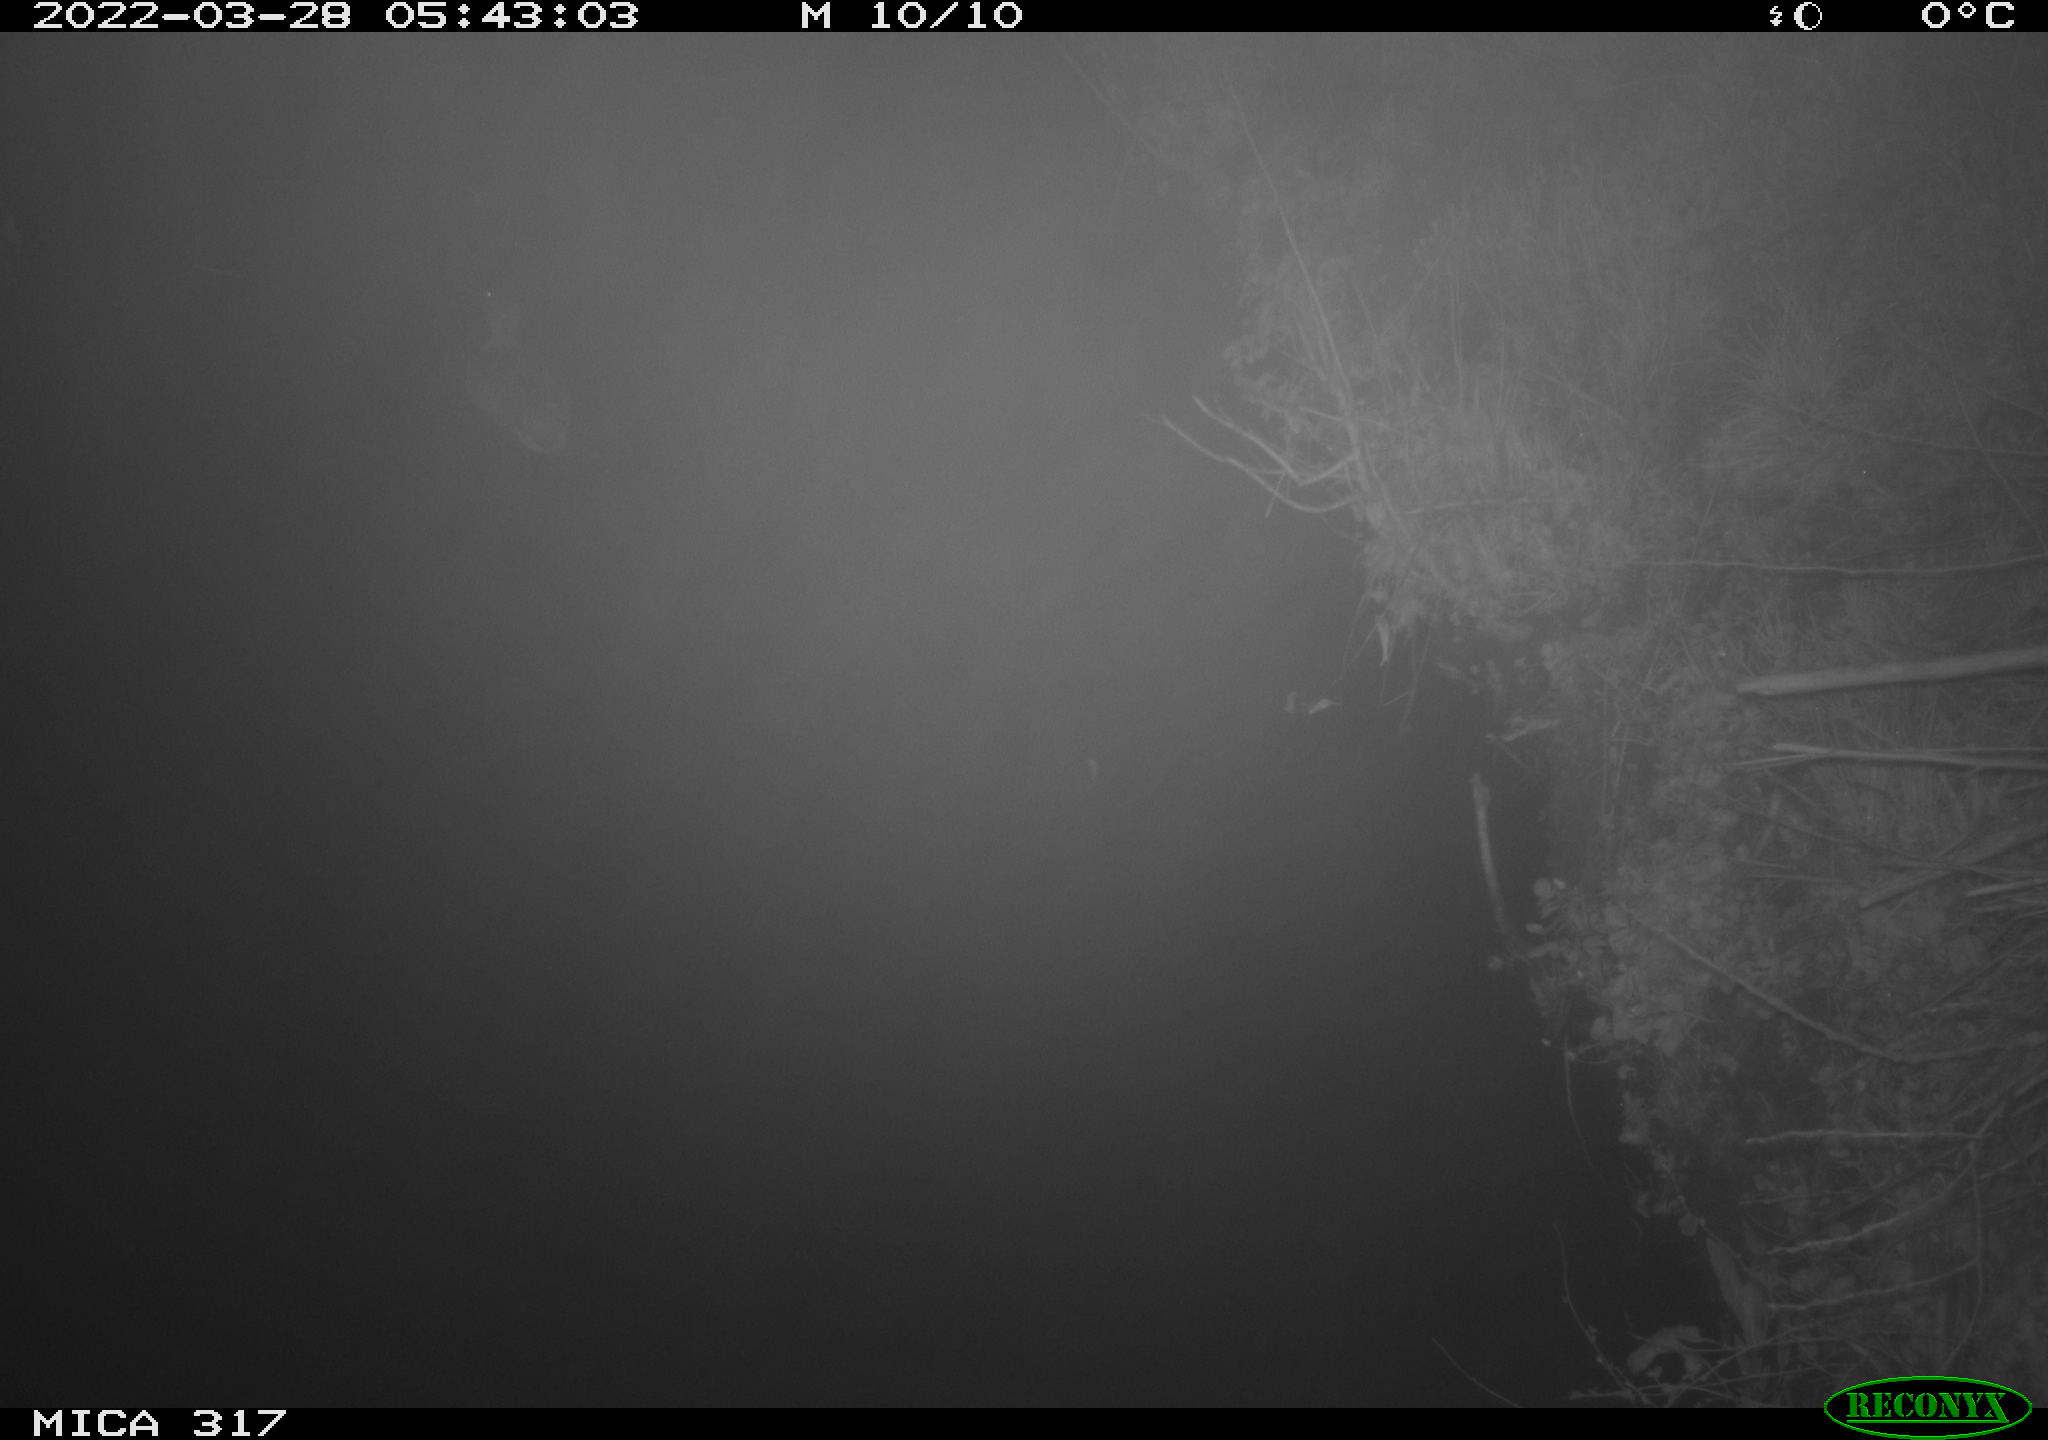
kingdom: Animalia
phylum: Chordata
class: Aves
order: Anseriformes
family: Anatidae
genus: Anas
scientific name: Anas platyrhynchos
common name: Mallard
